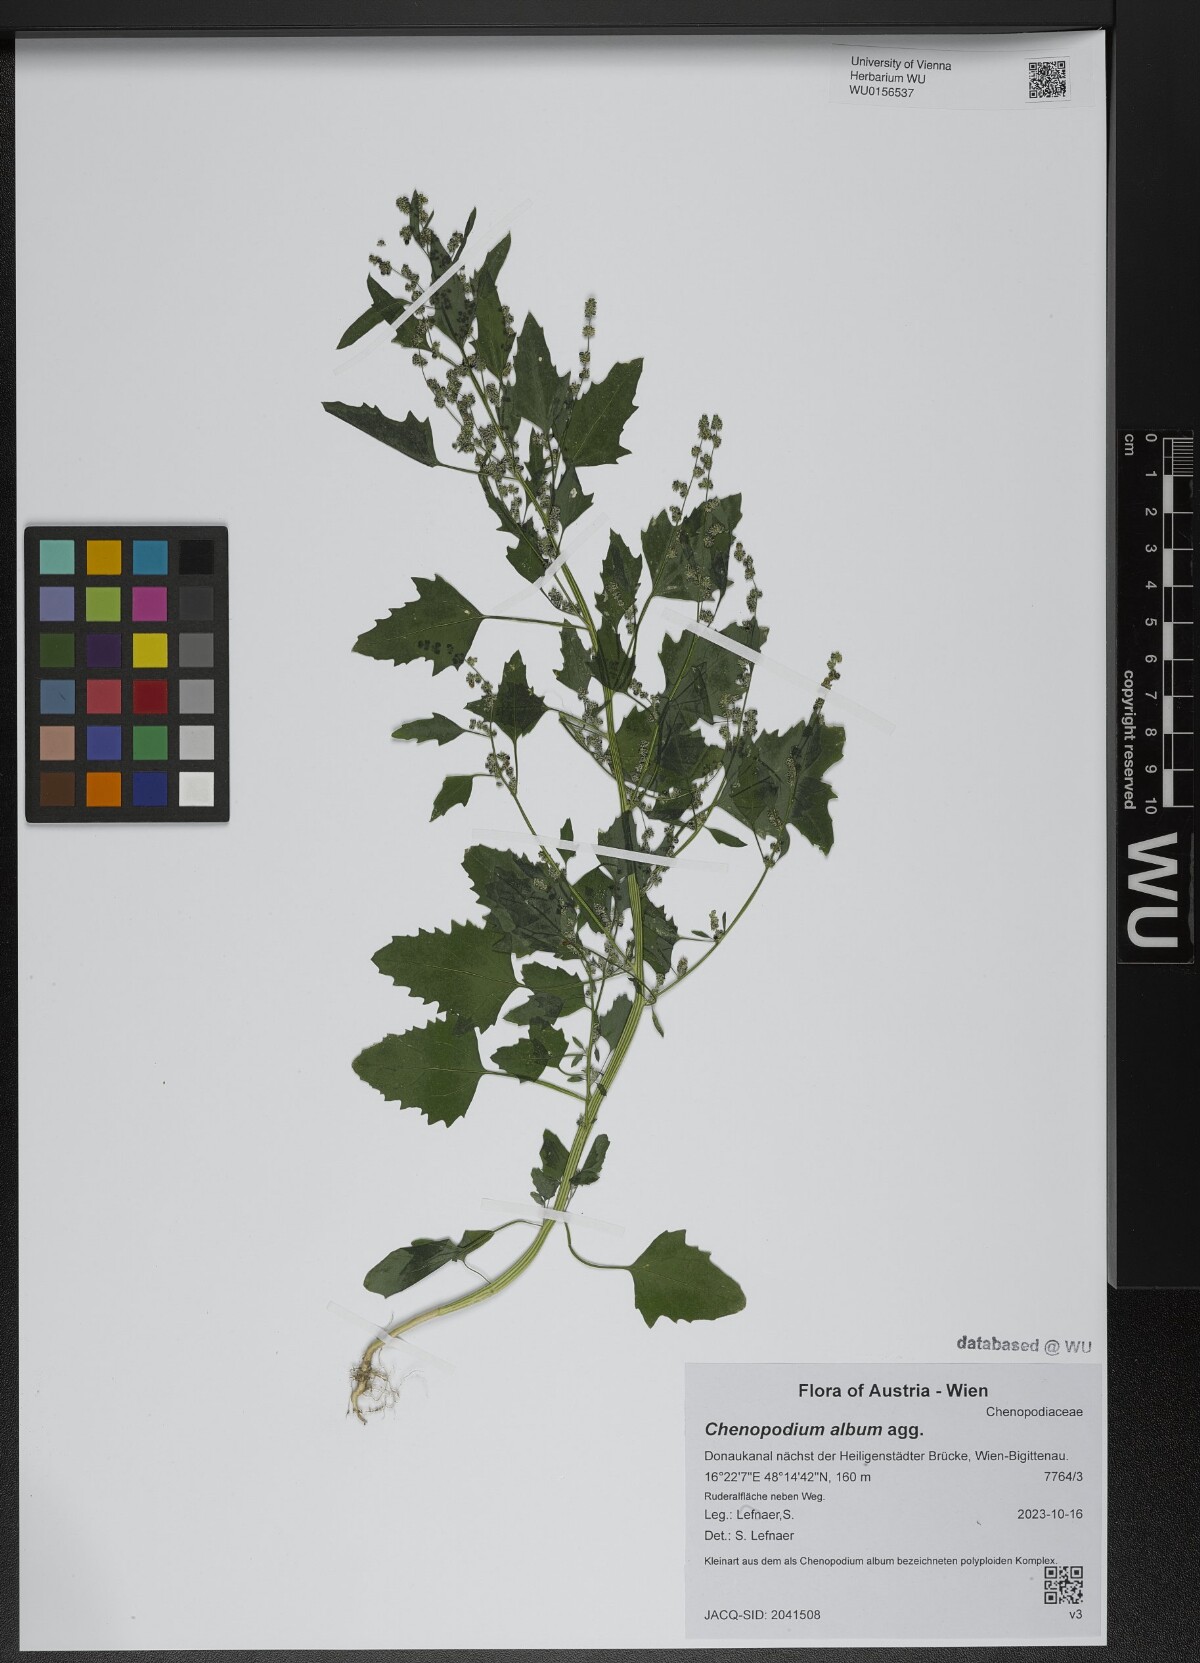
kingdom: Plantae
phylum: Tracheophyta
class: Magnoliopsida
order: Caryophyllales
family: Amaranthaceae
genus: Chenopodium
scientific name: Chenopodium album
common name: Fat-hen
